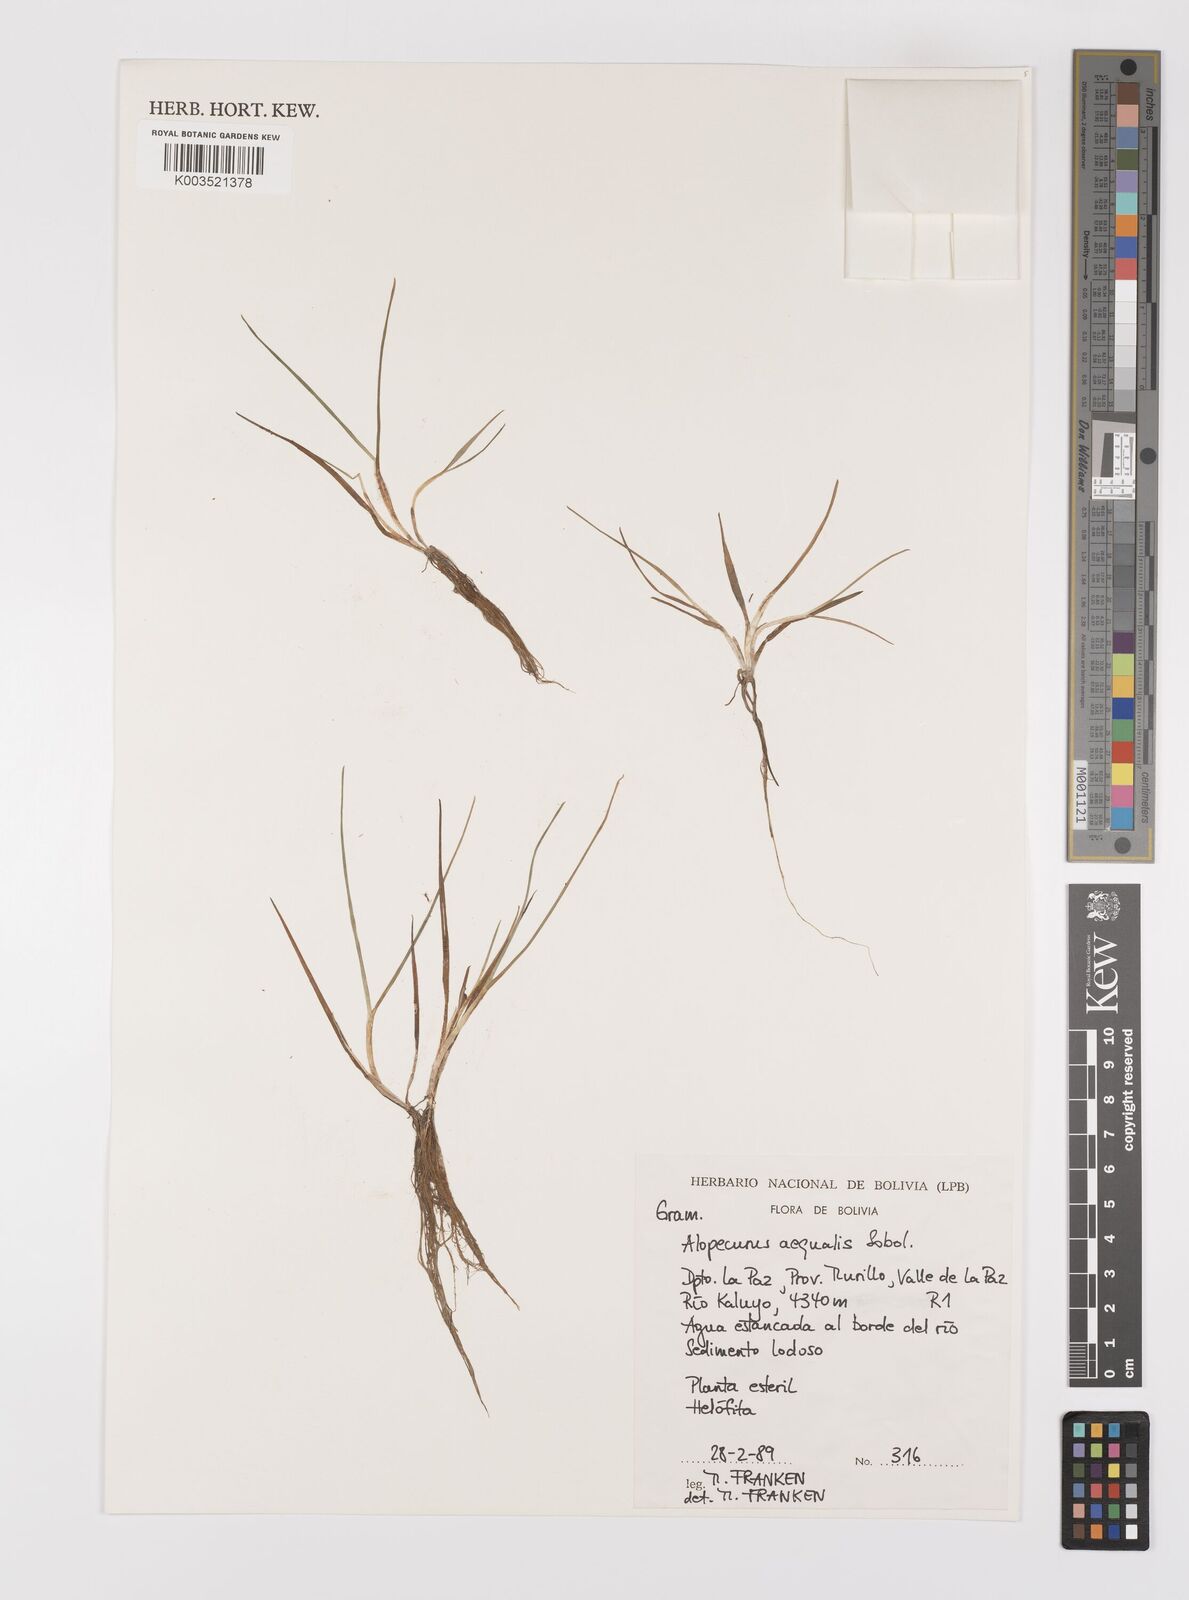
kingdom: Plantae
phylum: Tracheophyta
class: Liliopsida
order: Poales
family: Poaceae
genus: Alopecurus
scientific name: Alopecurus hitchcockii
